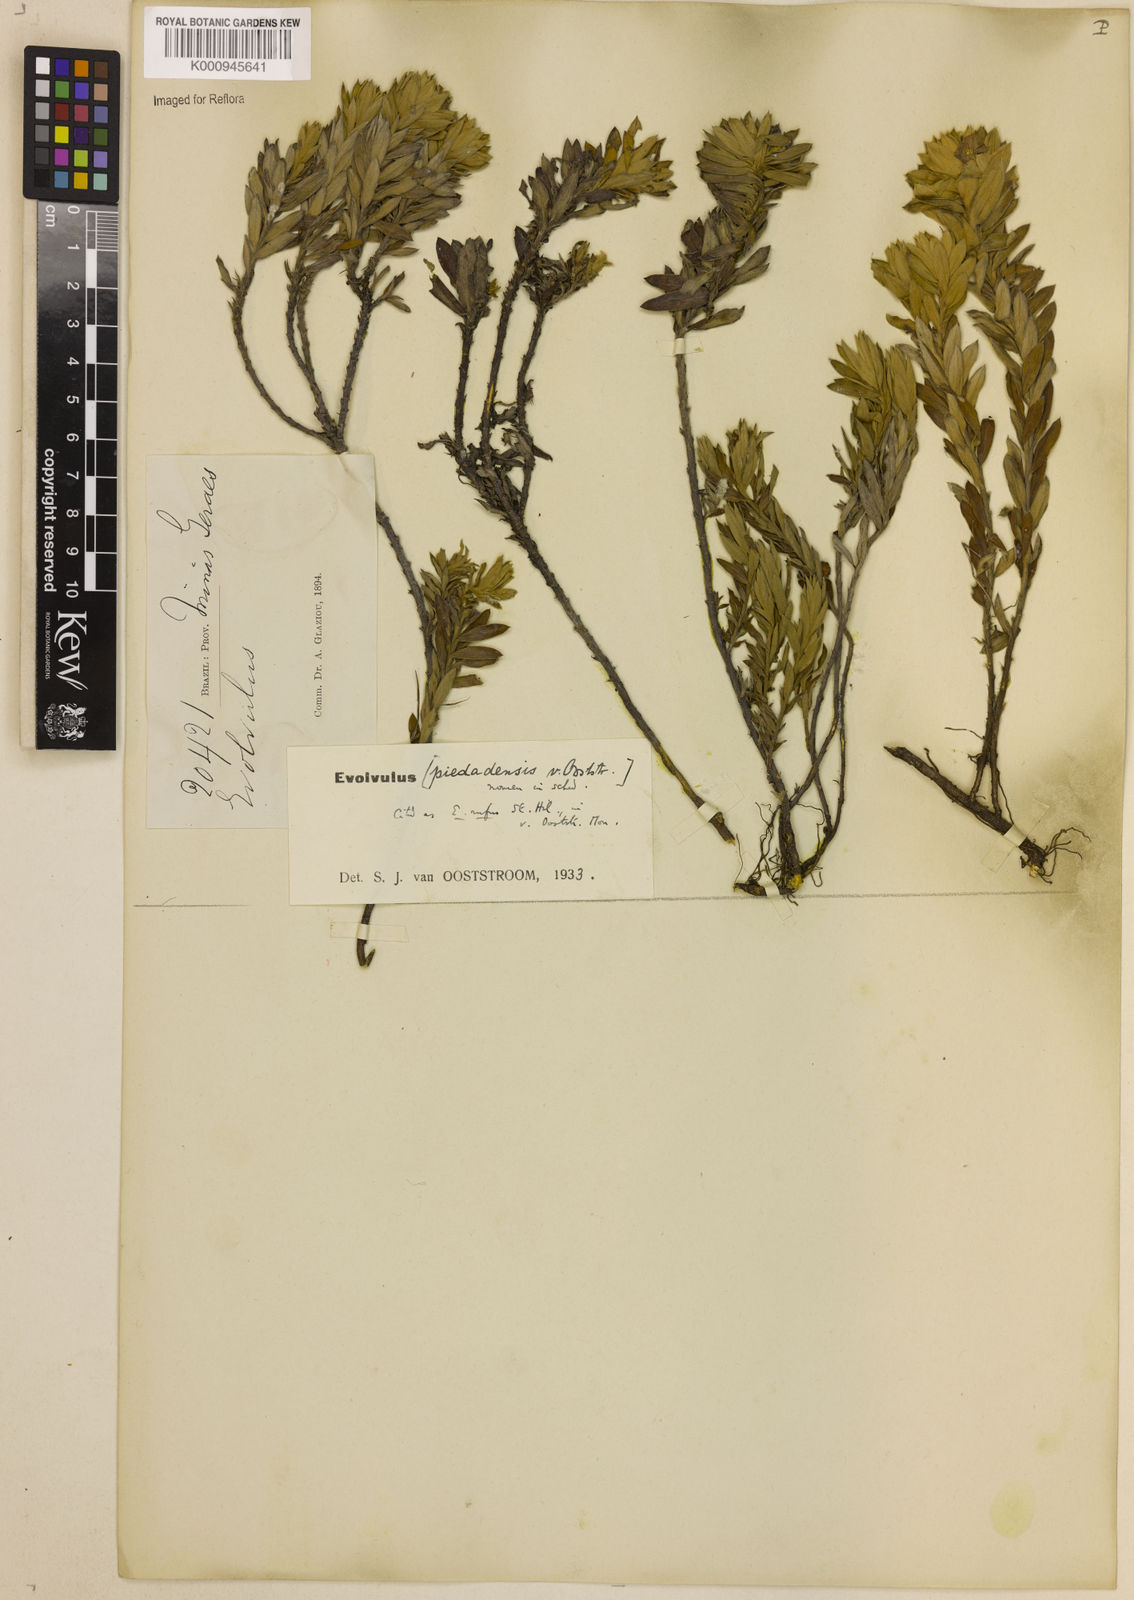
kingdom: Plantae
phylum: Tracheophyta
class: Magnoliopsida
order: Solanales
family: Convolvulaceae
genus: Evolvulus
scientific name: Evolvulus rufus
